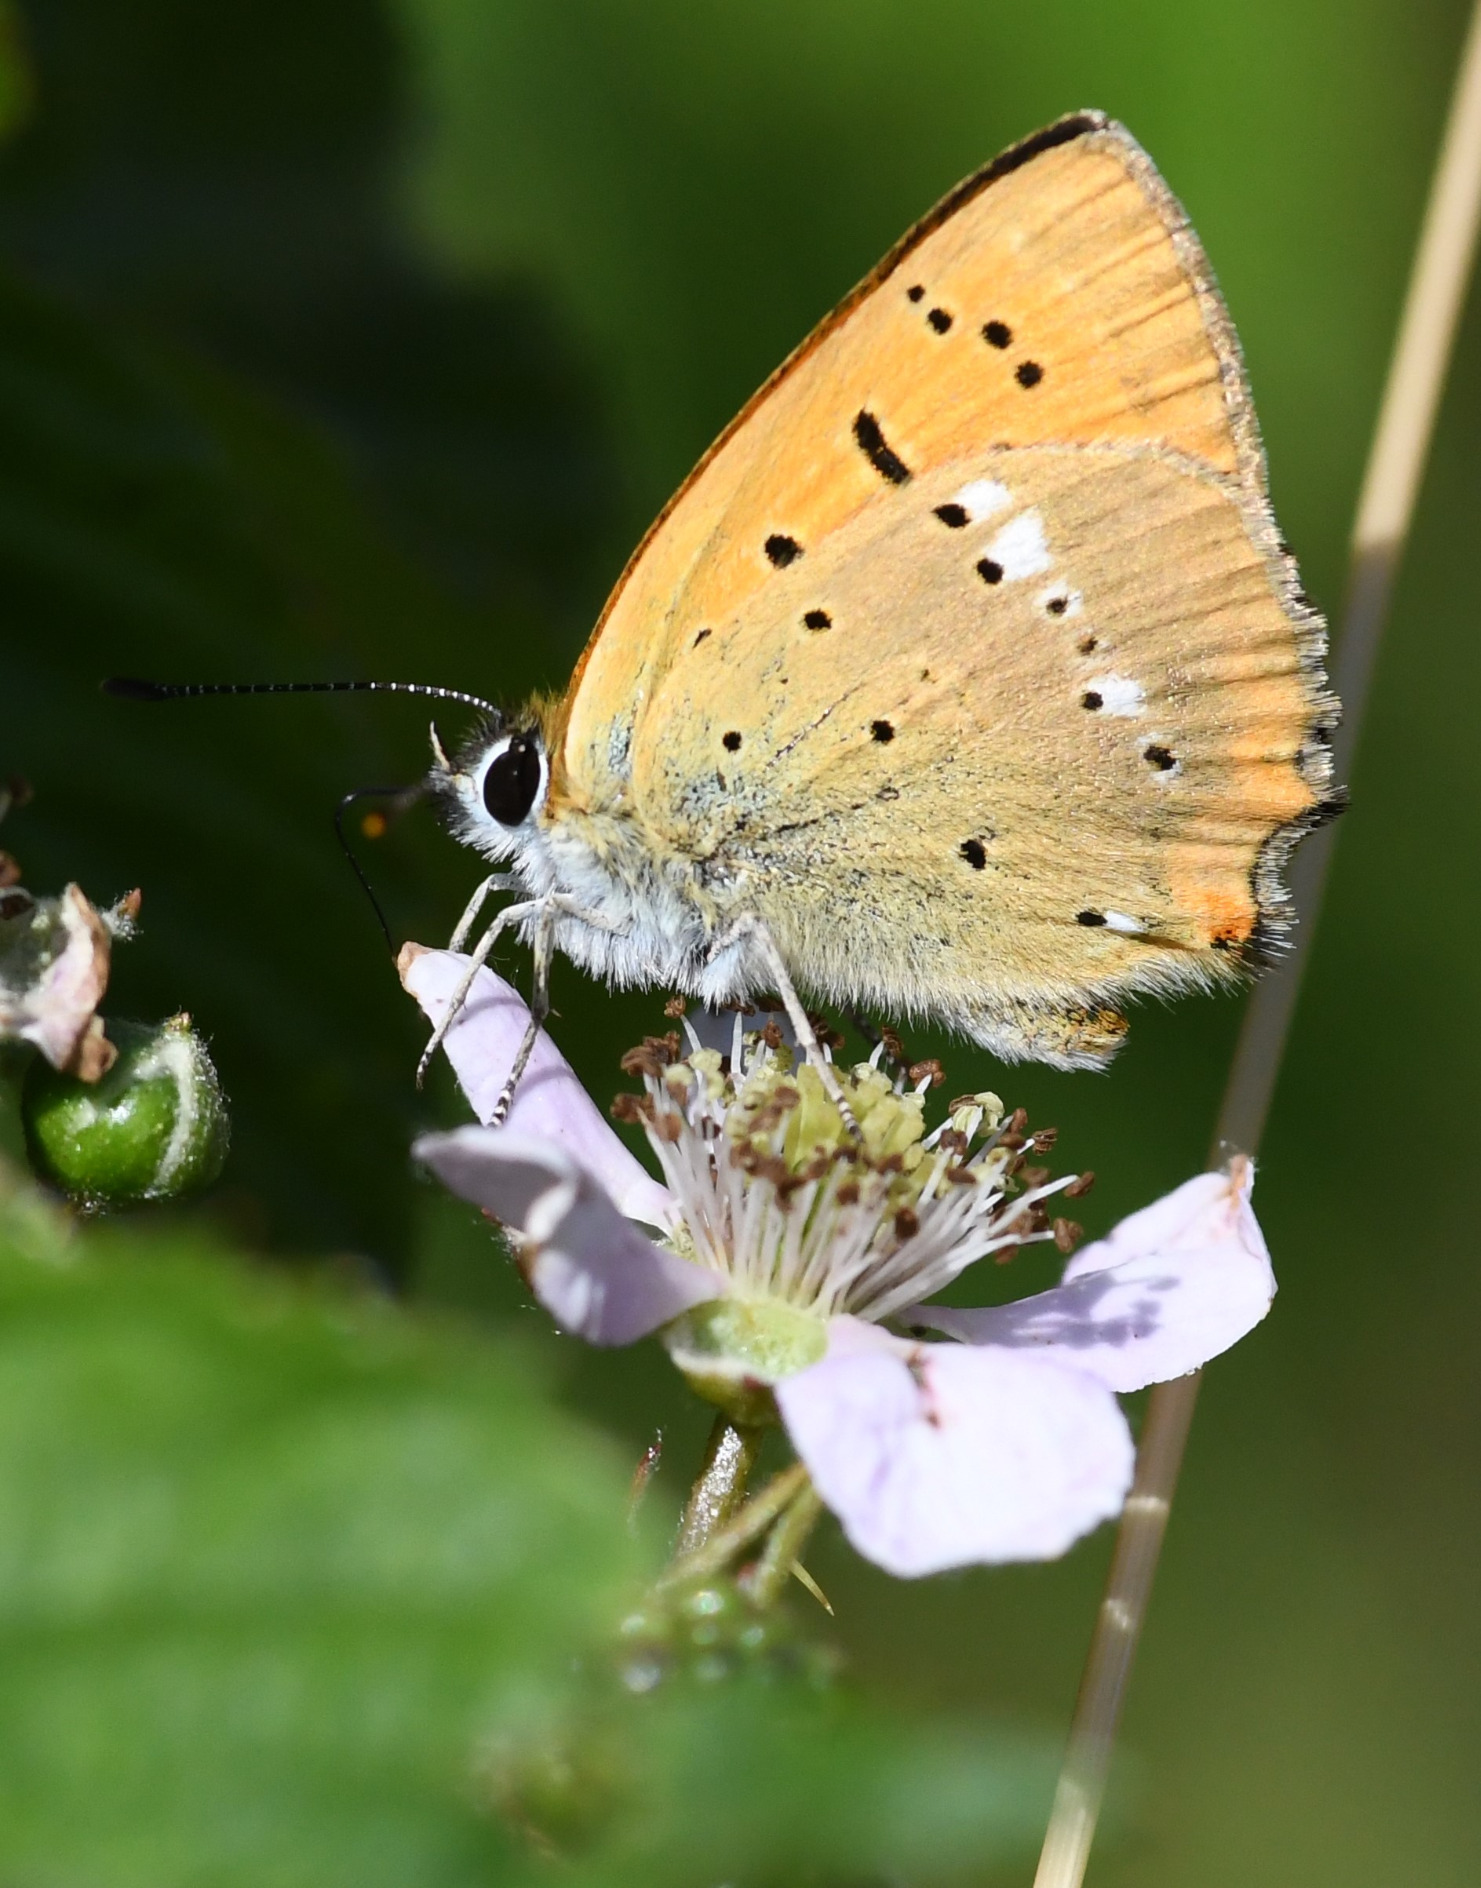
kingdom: Animalia
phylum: Arthropoda
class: Insecta
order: Lepidoptera
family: Lycaenidae
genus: Lycaena
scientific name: Lycaena virgaureae
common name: Dukatsommerfugl
